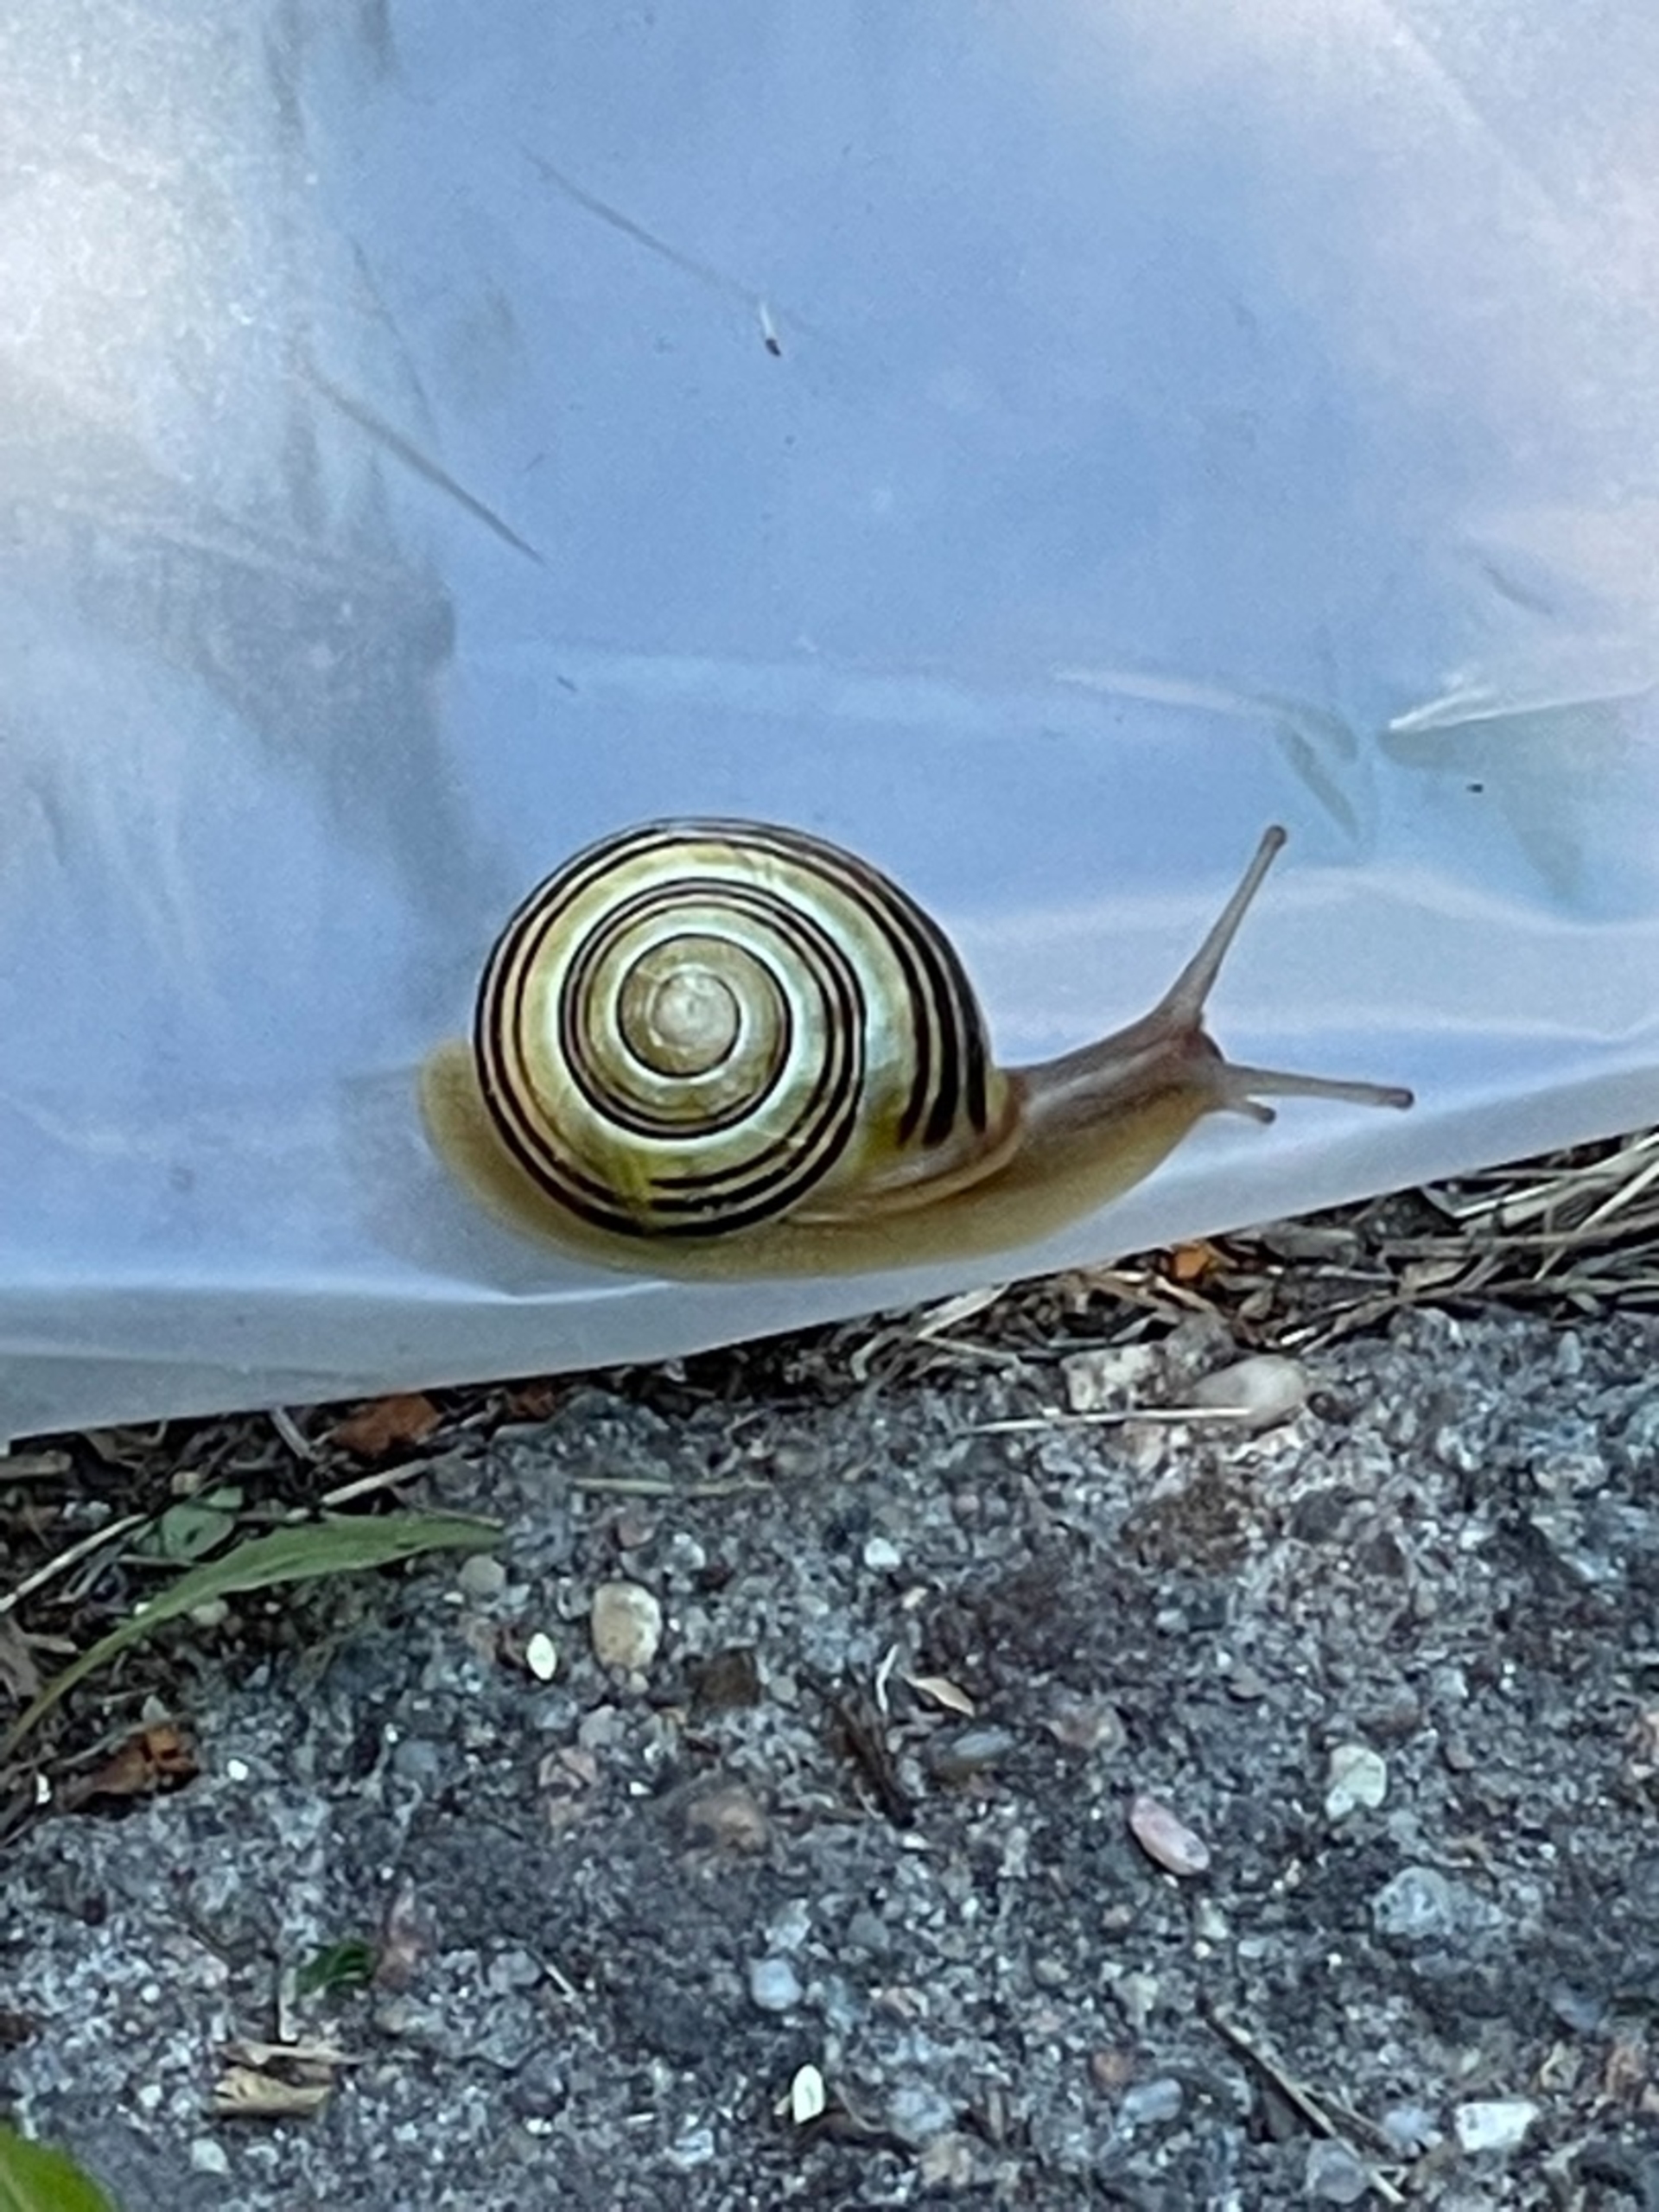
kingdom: Animalia
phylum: Mollusca
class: Gastropoda
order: Stylommatophora
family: Helicidae
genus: Cepaea
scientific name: Cepaea hortensis
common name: Havesnegl
